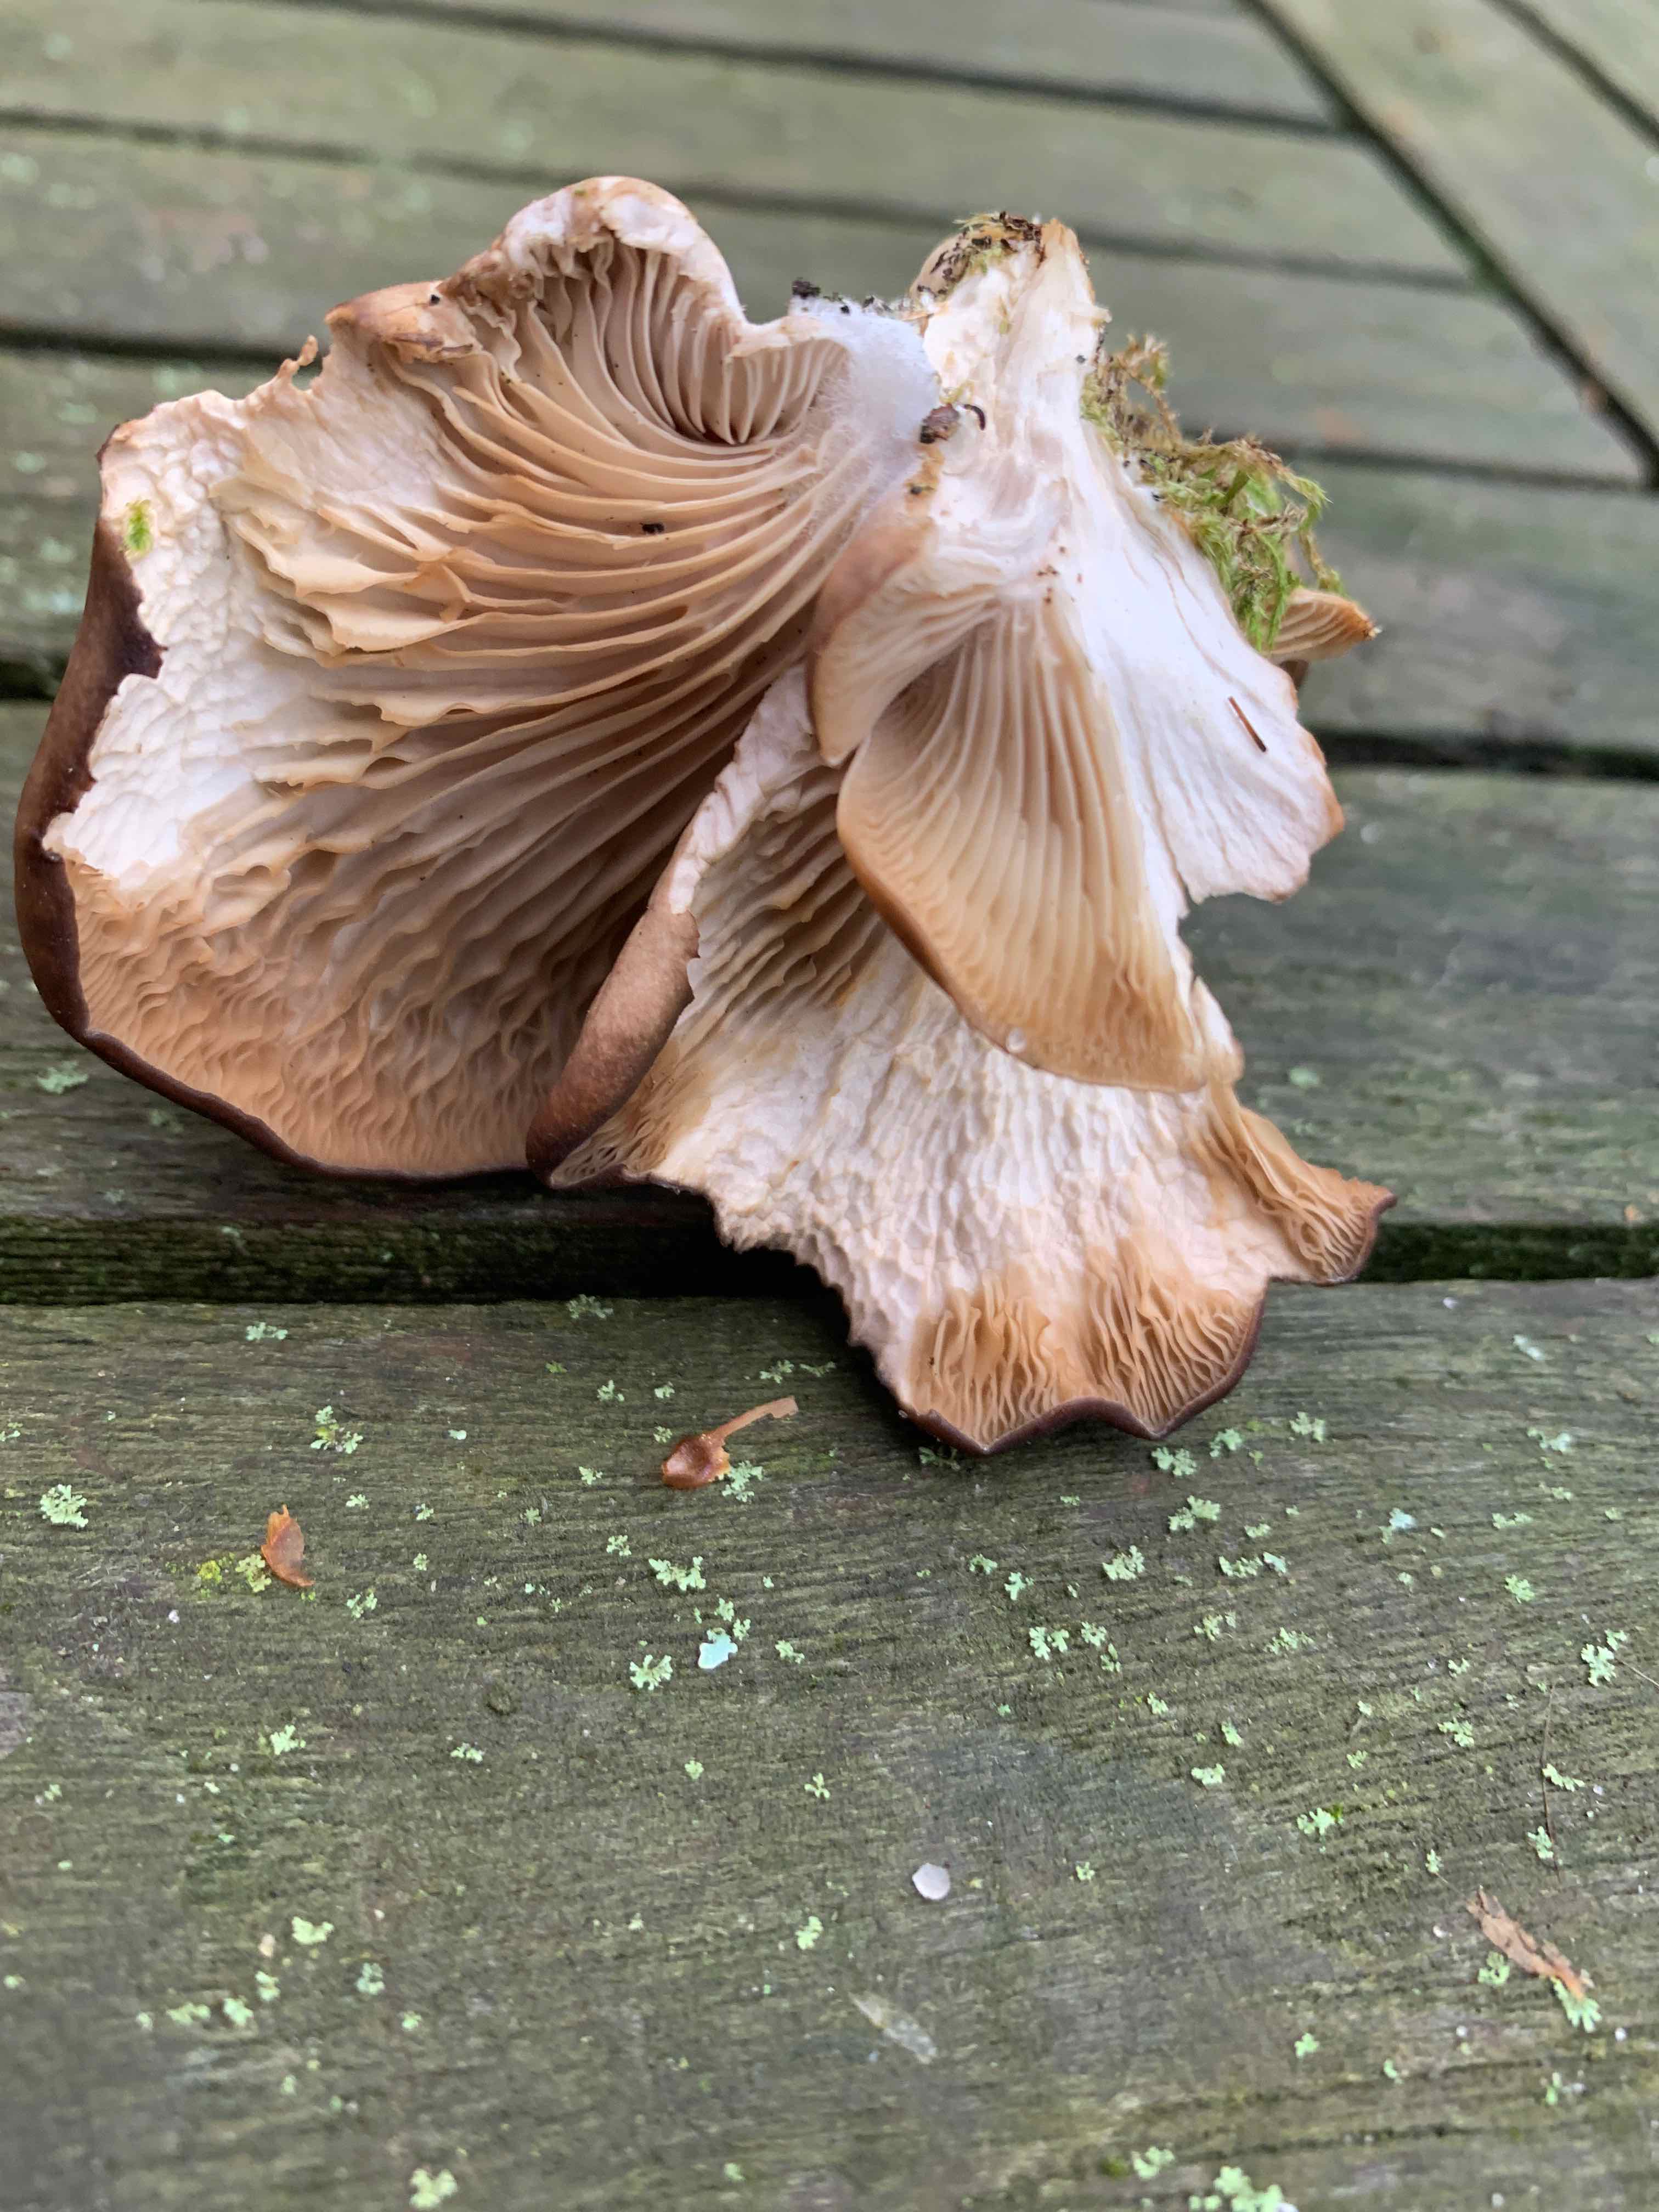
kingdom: Fungi
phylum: Basidiomycota
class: Agaricomycetes
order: Agaricales
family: Pleurotaceae
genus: Pleurotus
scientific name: Pleurotus ostreatus
